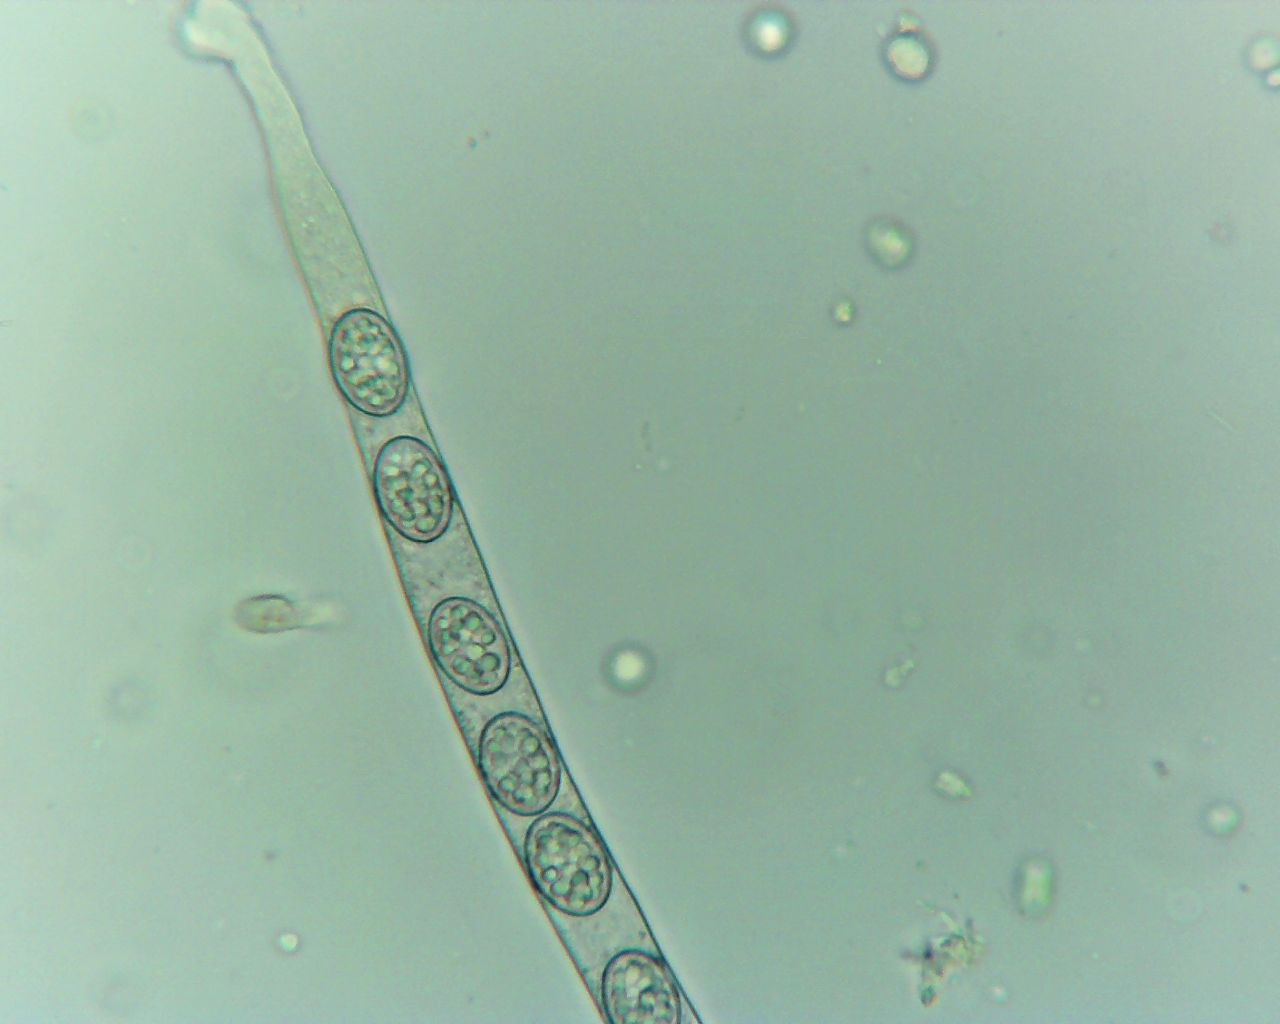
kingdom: Fungi
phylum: Ascomycota
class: Pezizomycetes
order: Pezizales
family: Pyronemataceae
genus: Scutellinia
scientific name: Scutellinia
